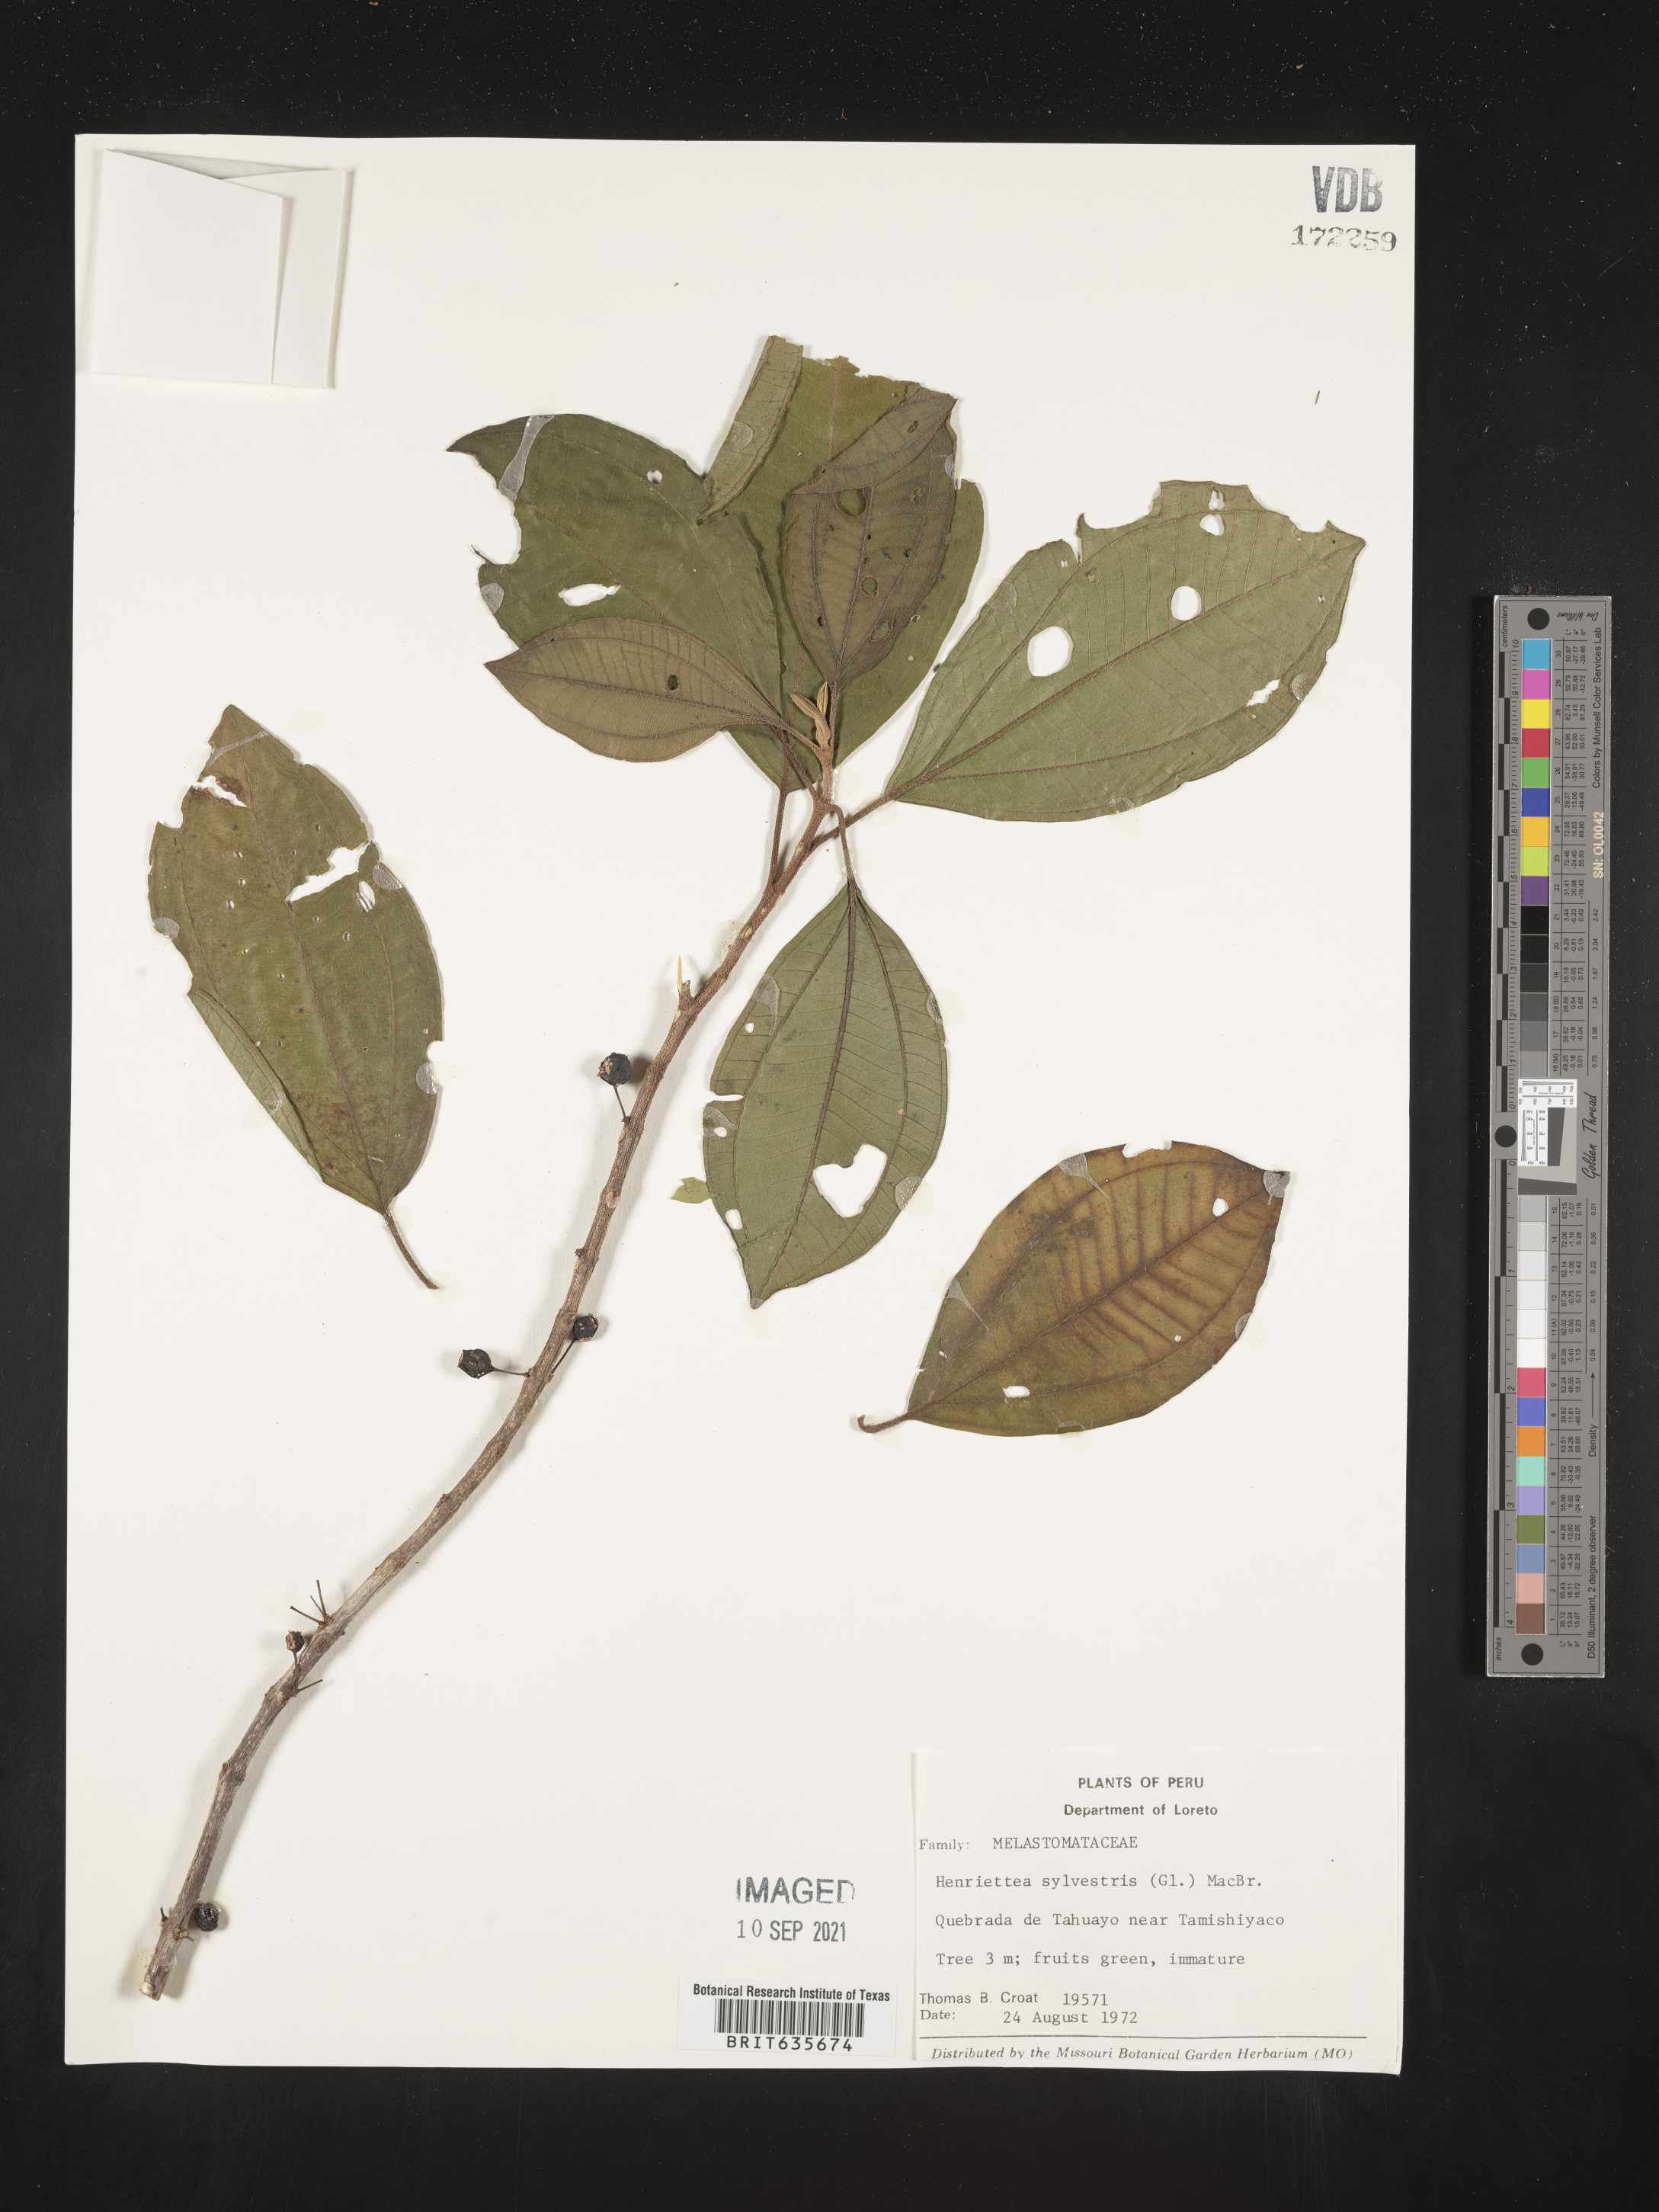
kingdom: Plantae
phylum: Tracheophyta
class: Magnoliopsida
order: Myrtales
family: Melastomataceae
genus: Henriettea
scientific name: Henriettea
